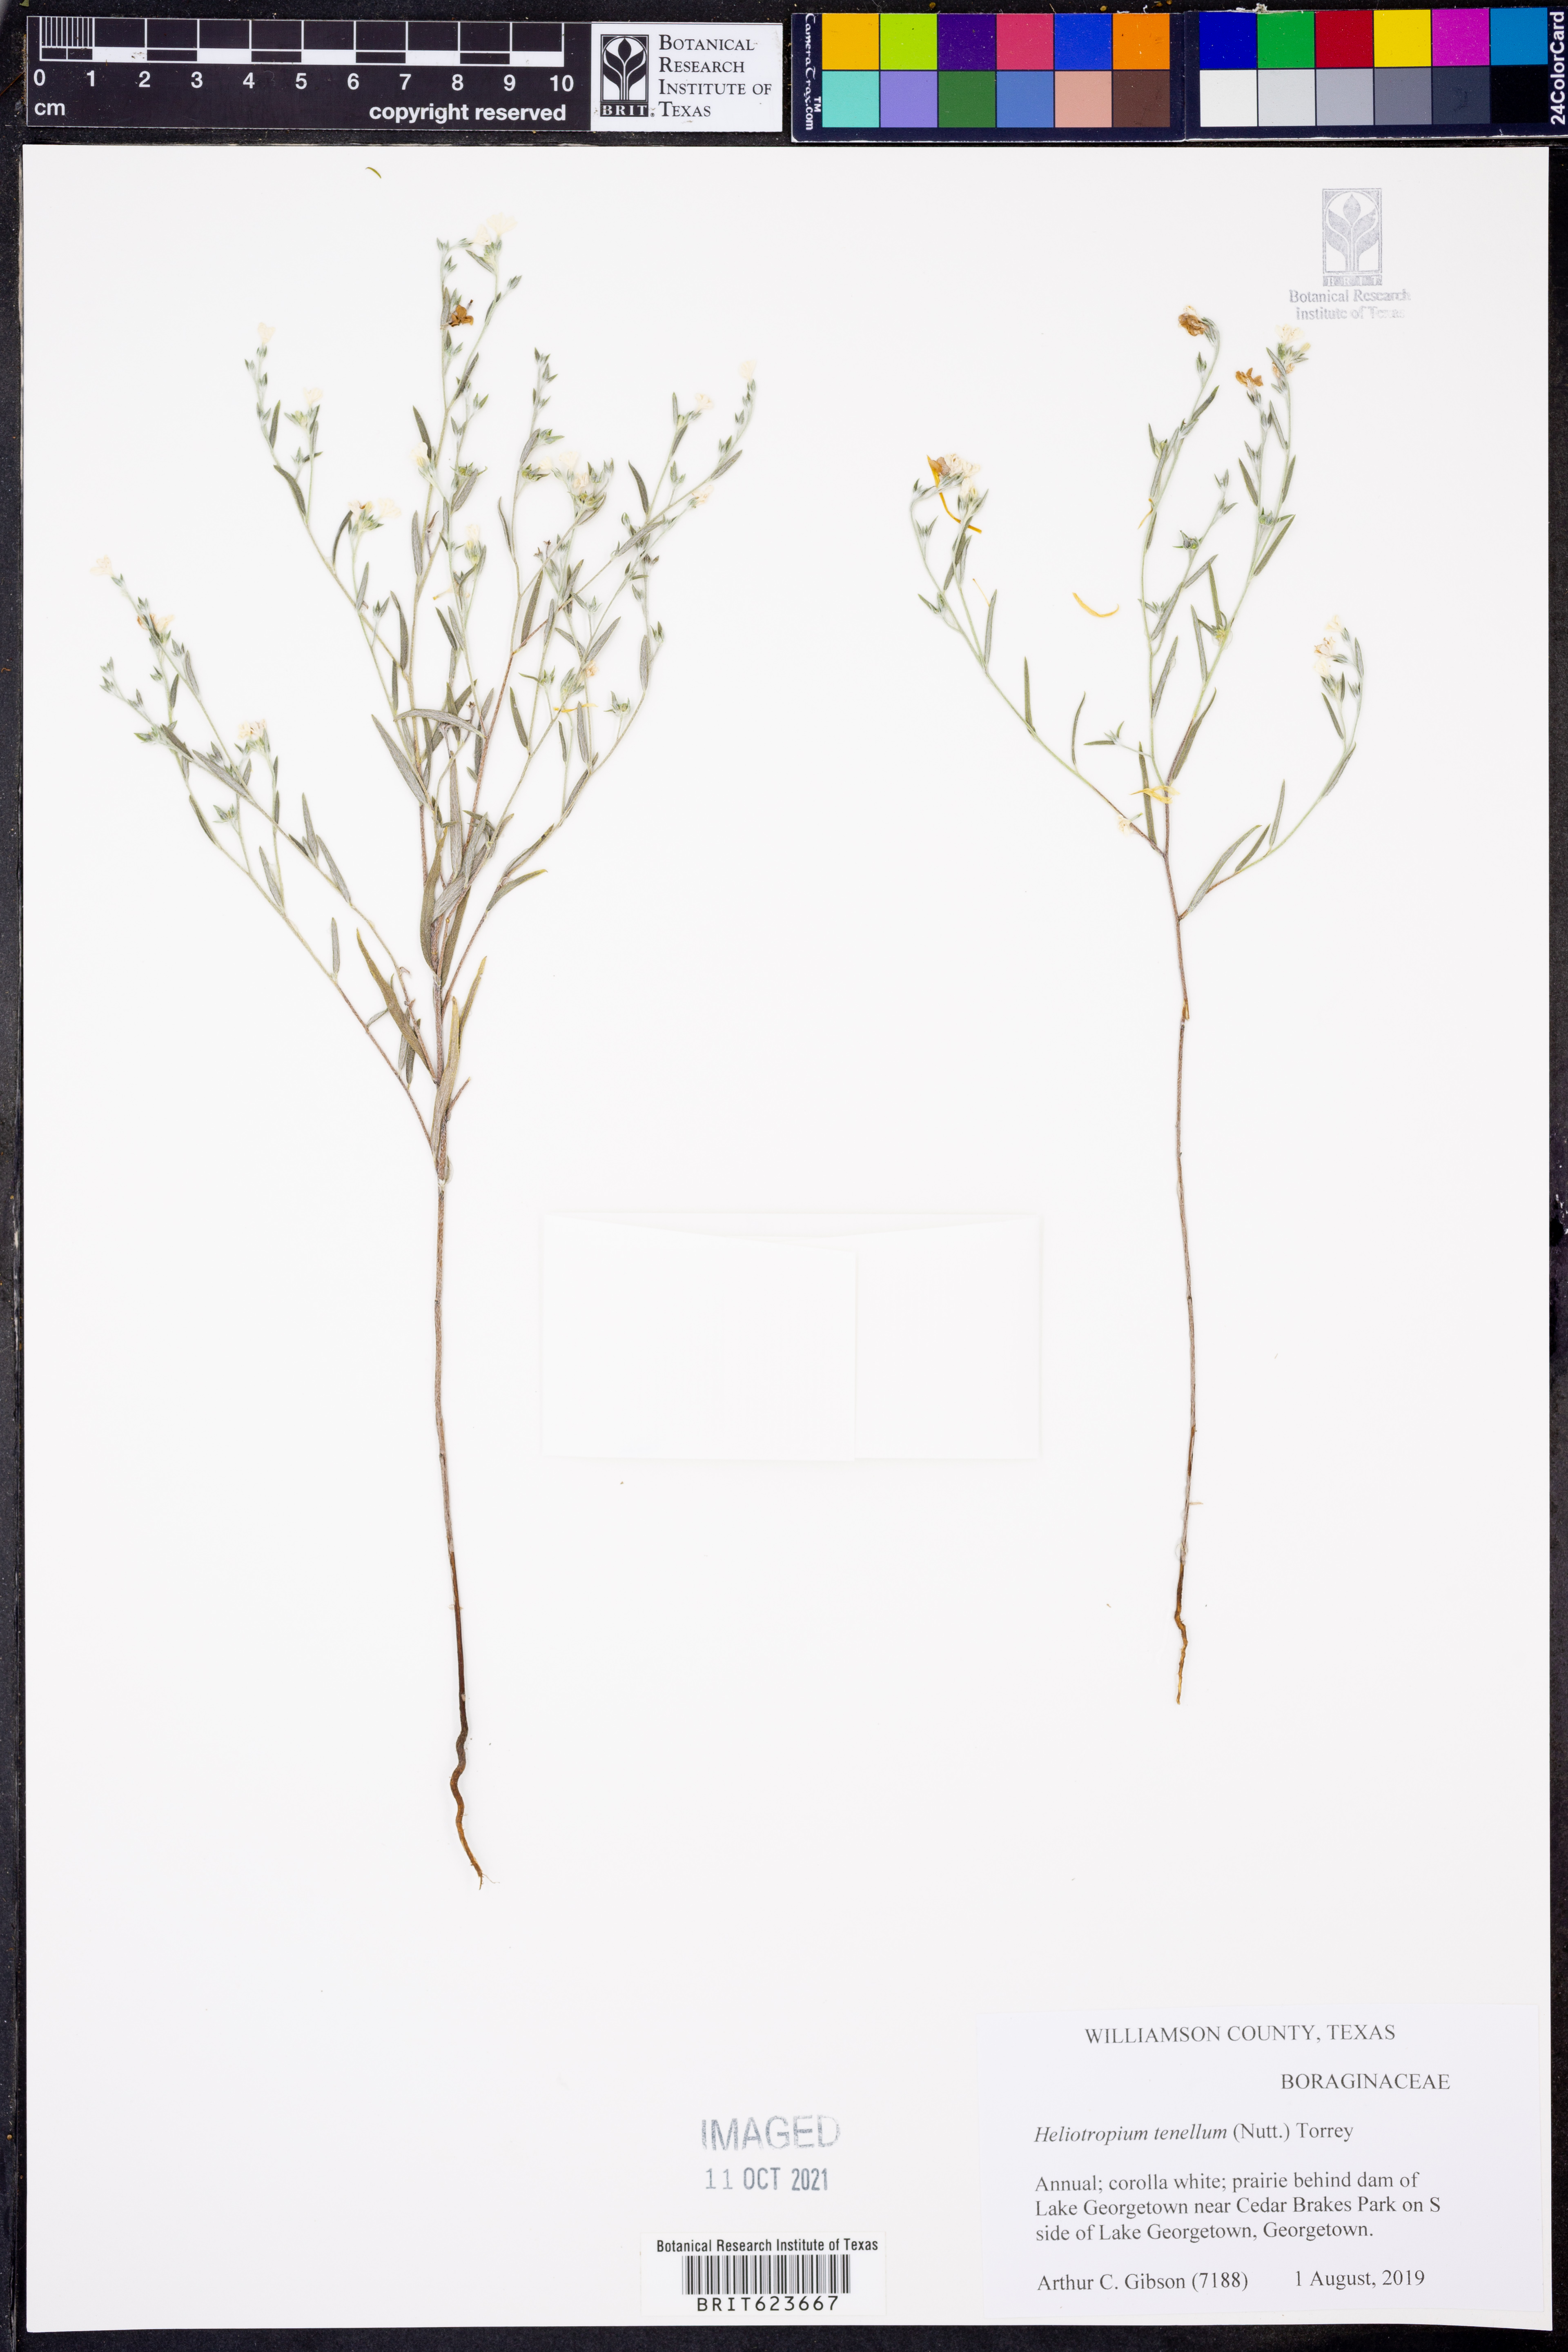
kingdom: Plantae
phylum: Tracheophyta
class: Magnoliopsida
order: Boraginales
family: Heliotropiaceae
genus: Euploca
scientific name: Euploca tenella
